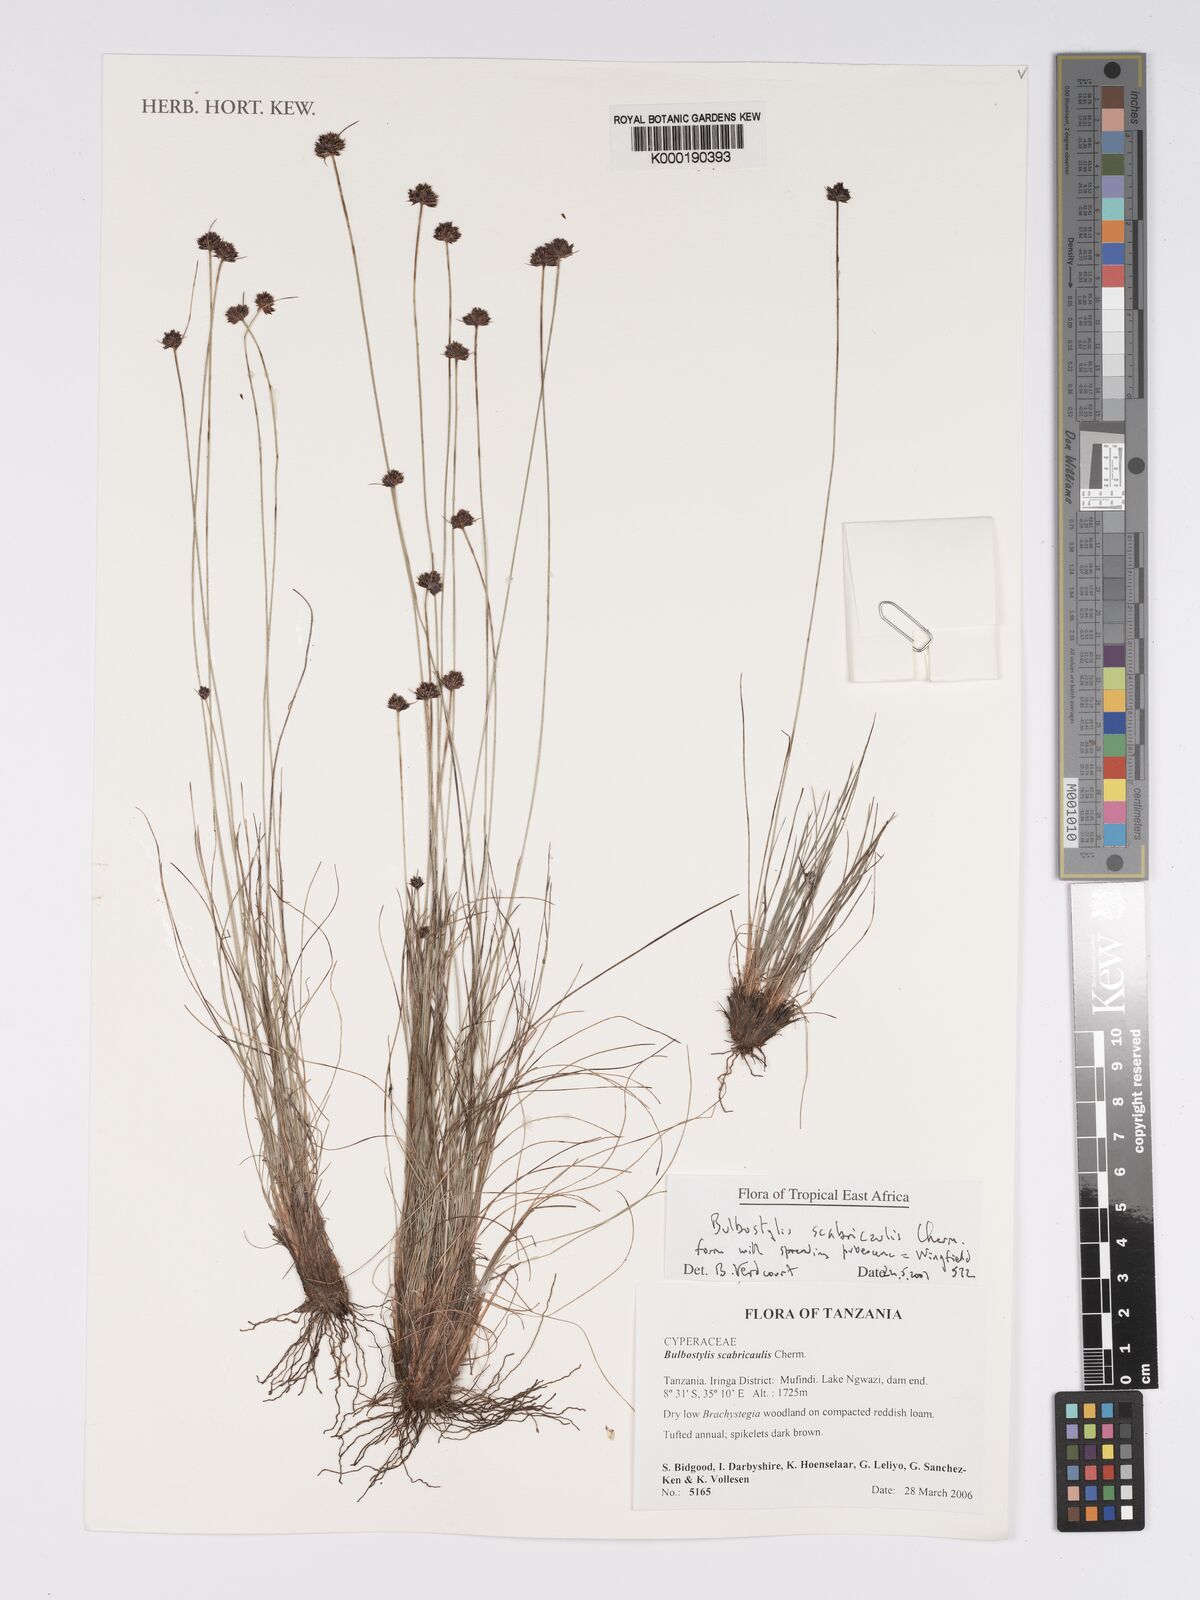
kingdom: Plantae
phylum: Tracheophyta
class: Liliopsida
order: Poales
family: Cyperaceae
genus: Bulbostylis
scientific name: Bulbostylis scabricaulis
